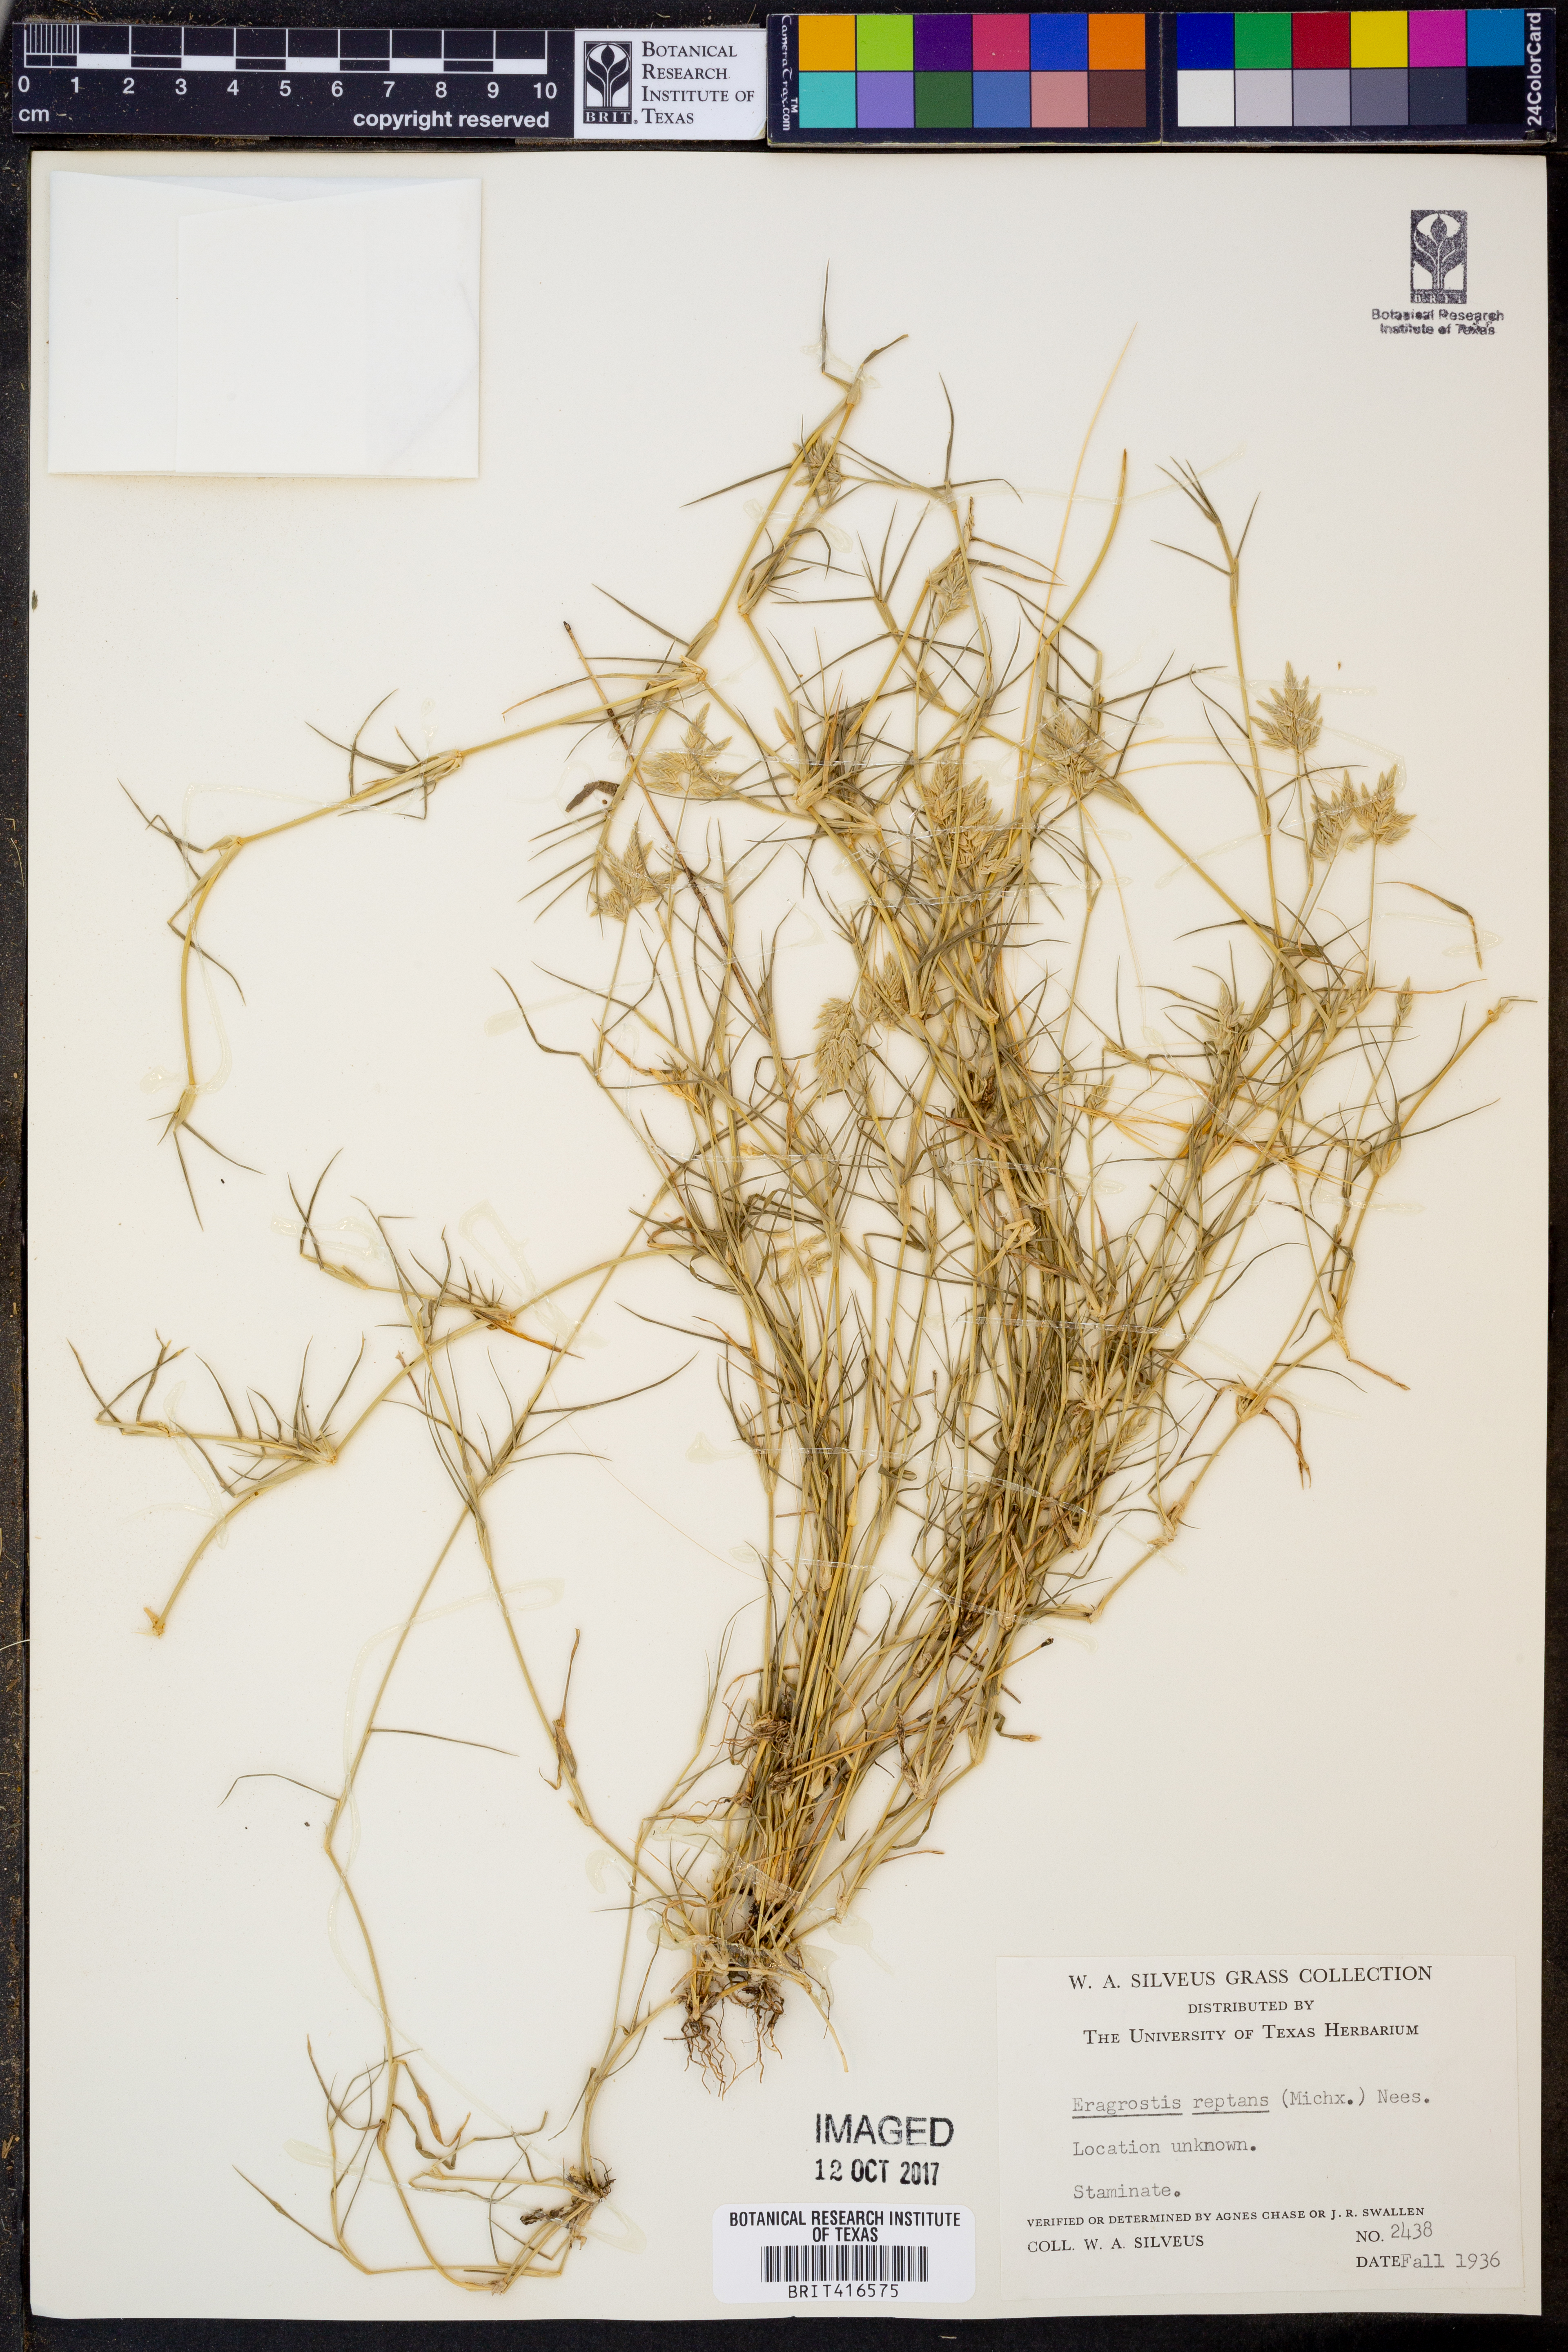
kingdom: Plantae
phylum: Tracheophyta
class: Liliopsida
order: Poales
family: Poaceae
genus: Eragrostis
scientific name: Eragrostis reptans
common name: Creeping love grass
